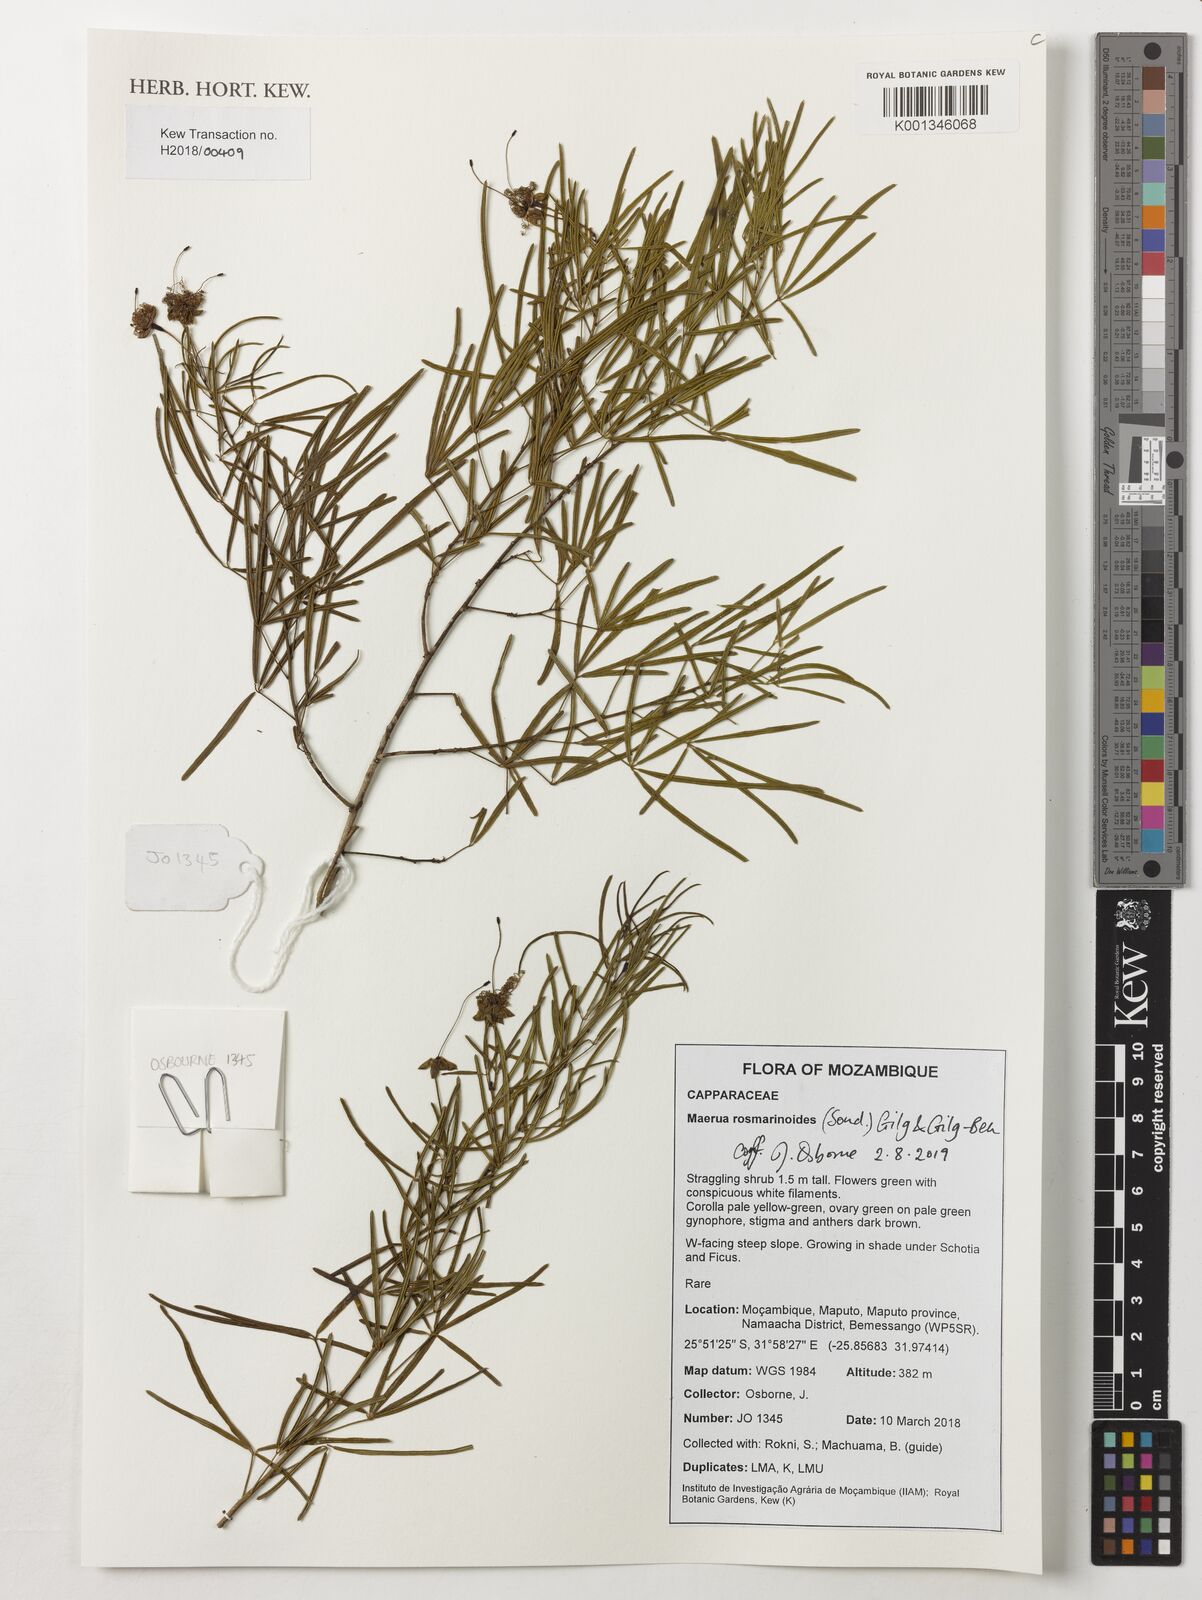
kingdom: Plantae
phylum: Tracheophyta
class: Magnoliopsida
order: Brassicales
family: Capparaceae
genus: Maerua
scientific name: Maerua rosmarinoides
